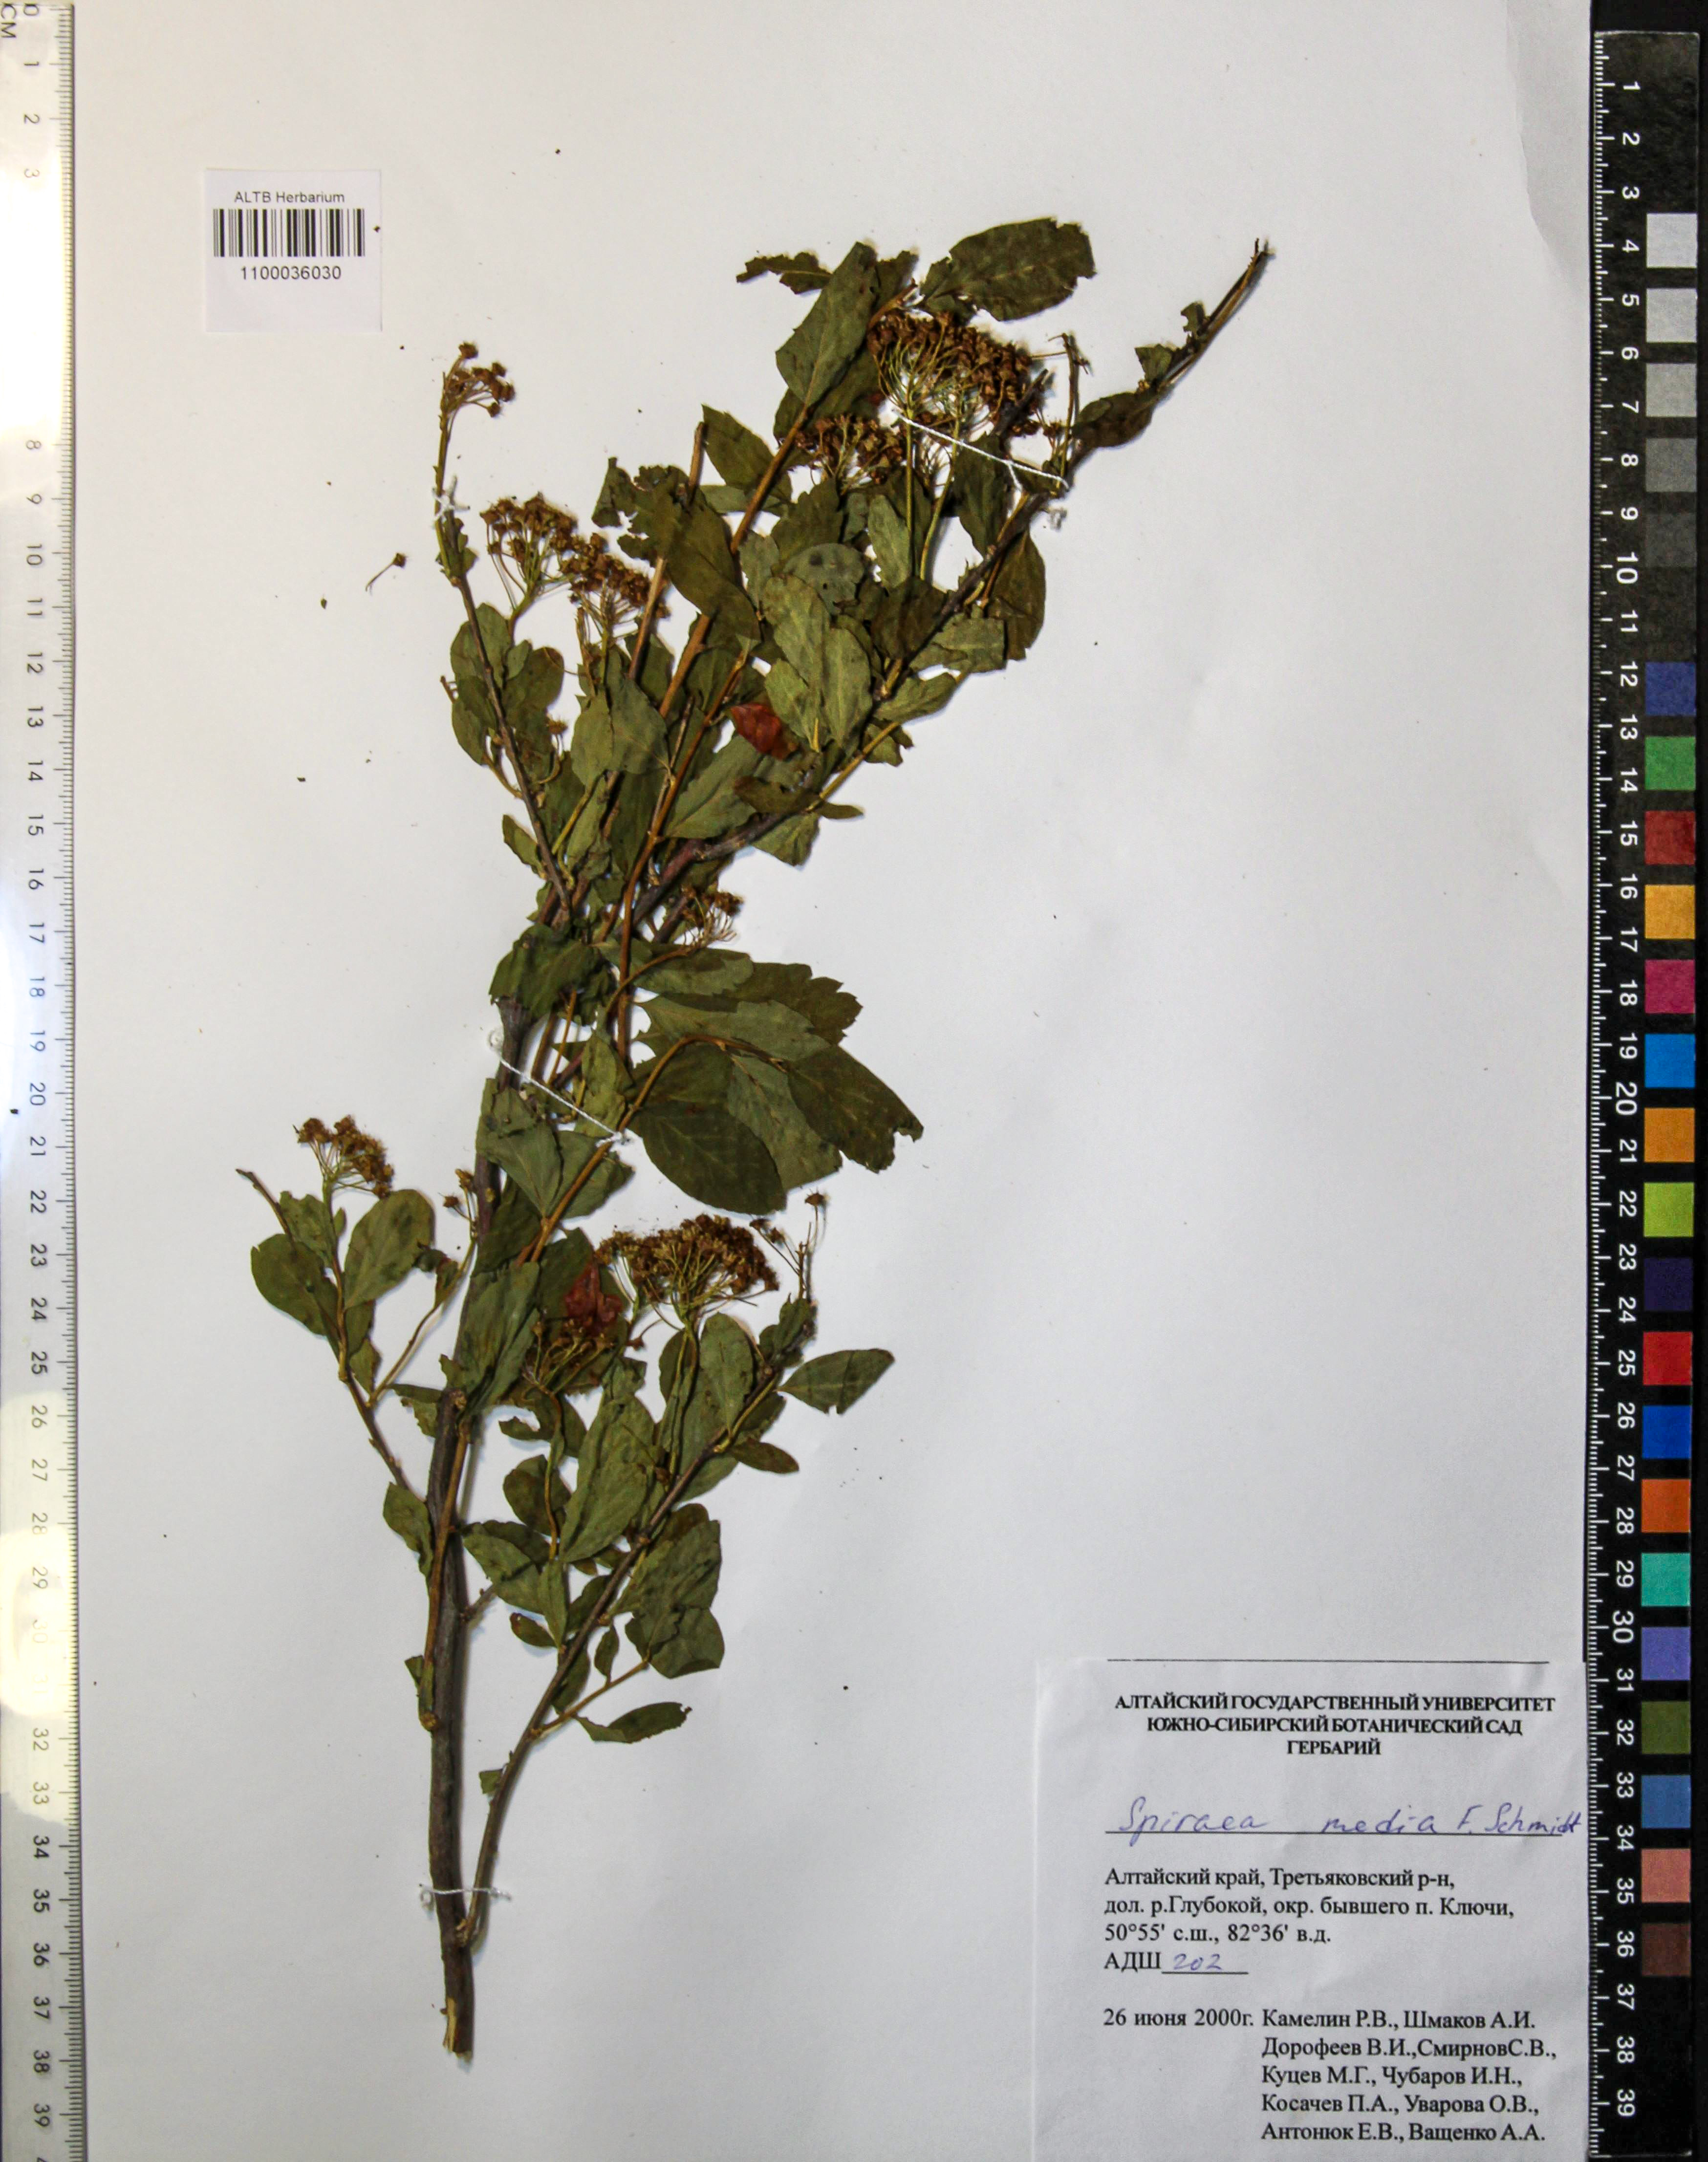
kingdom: Plantae
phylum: Tracheophyta
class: Magnoliopsida
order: Rosales
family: Rosaceae
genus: Spiraea
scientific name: Spiraea media
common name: Russian spiraea
